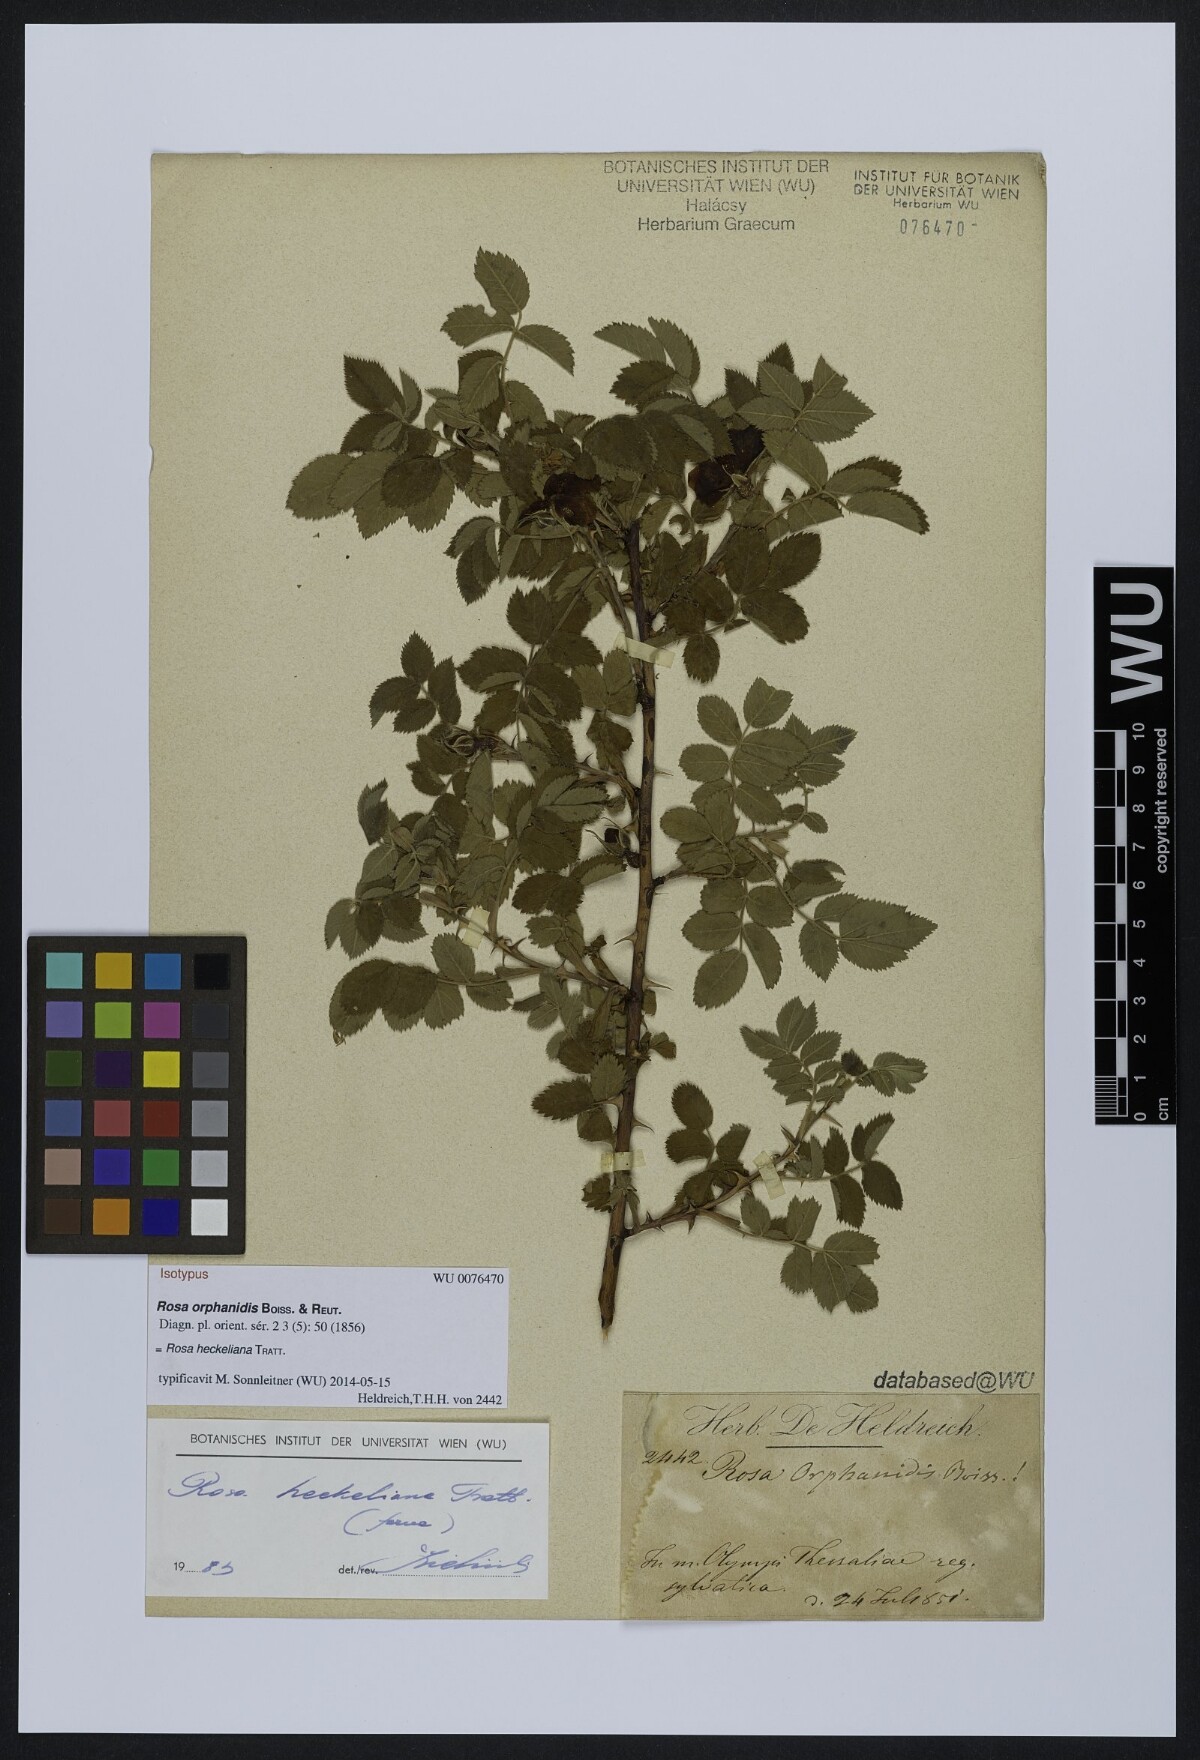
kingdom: Plantae
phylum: Tracheophyta
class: Magnoliopsida
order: Rosales
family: Rosaceae
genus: Rosa
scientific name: Rosa heckeliana
